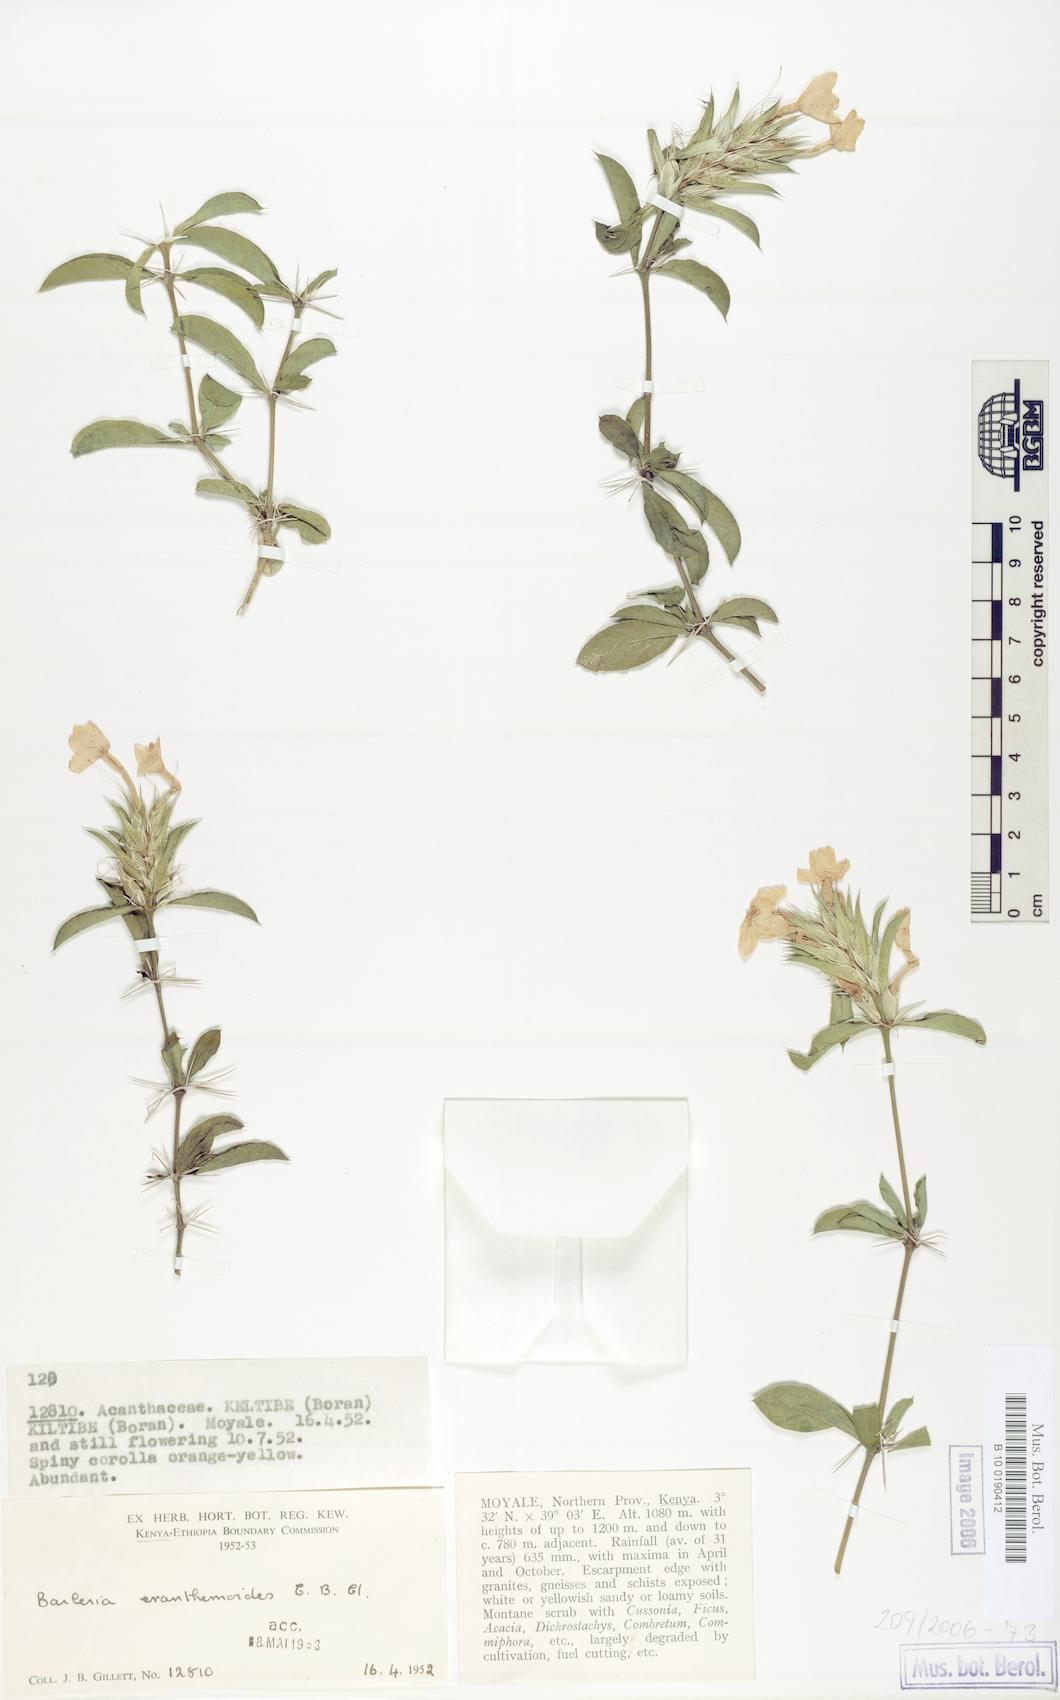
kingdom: Plantae
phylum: Tracheophyta
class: Magnoliopsida
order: Lamiales
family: Acanthaceae
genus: Barleria
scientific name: Barleria eranthemoides
